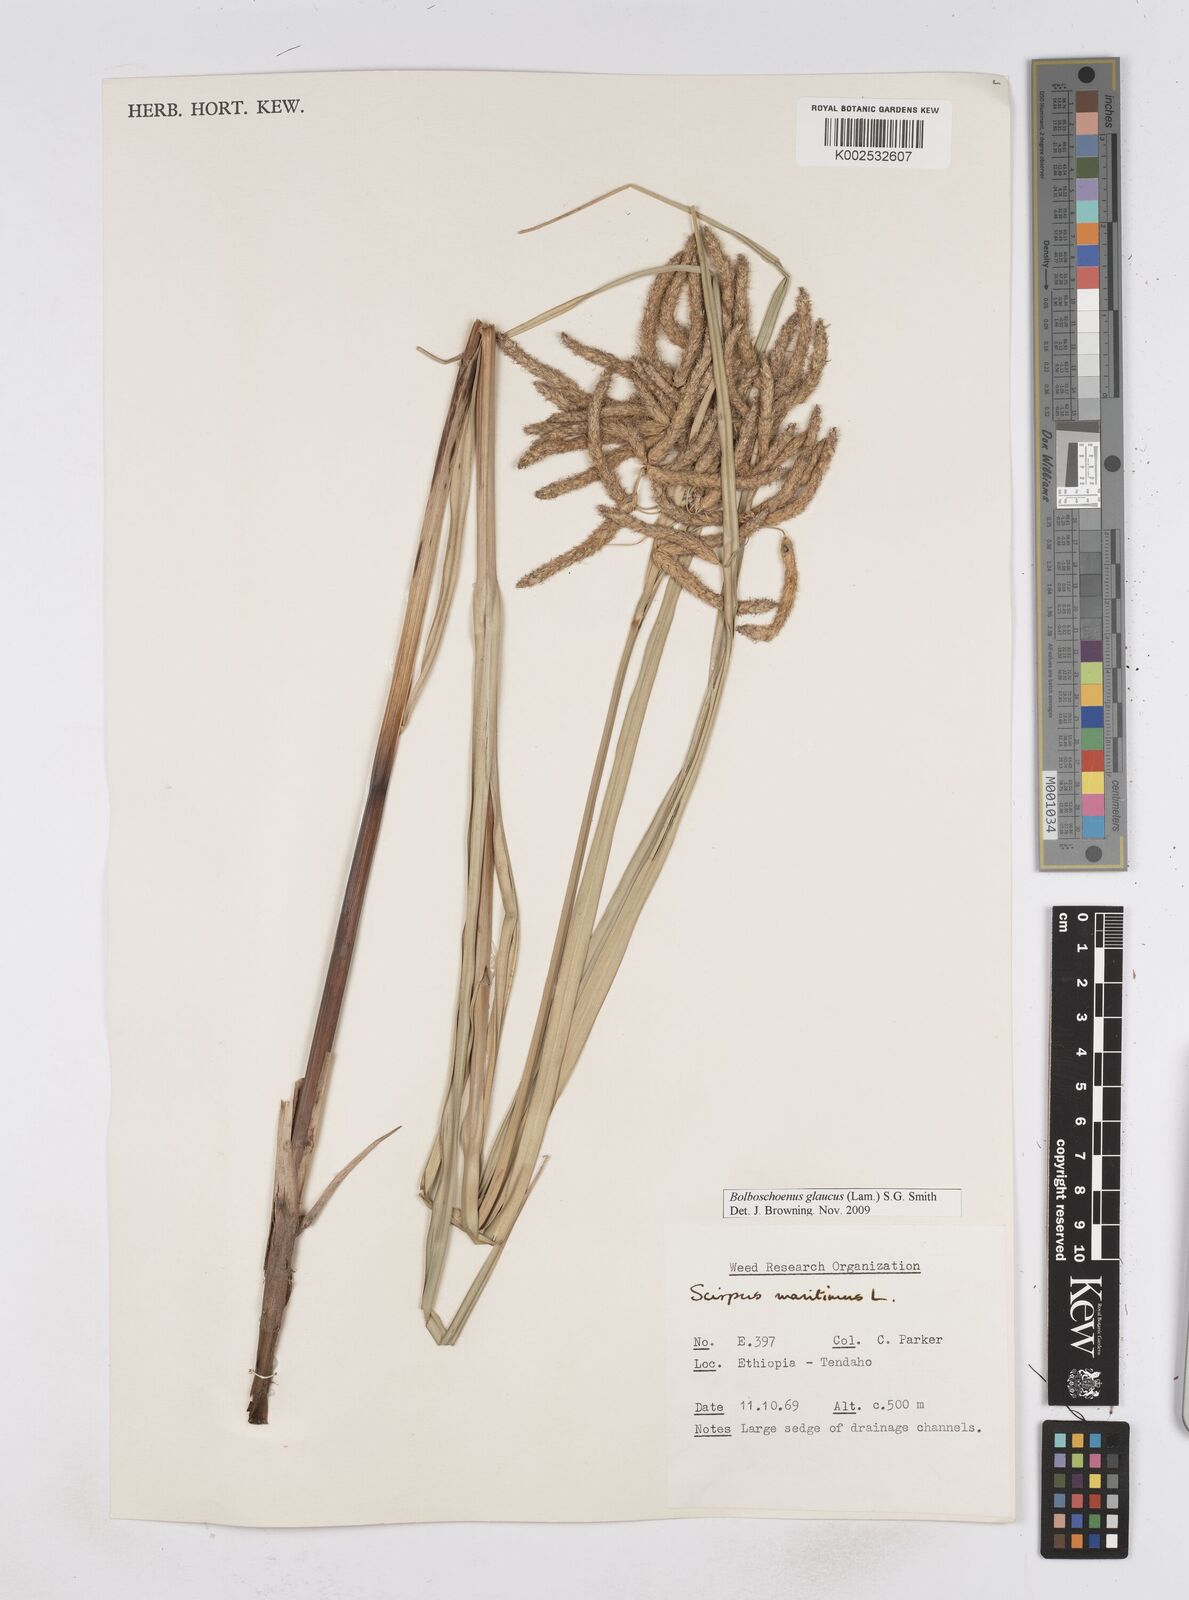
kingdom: Plantae
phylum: Tracheophyta
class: Liliopsida
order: Poales
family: Cyperaceae
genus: Bolboschoenus
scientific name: Bolboschoenus glaucus
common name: Tuberous bulrush
